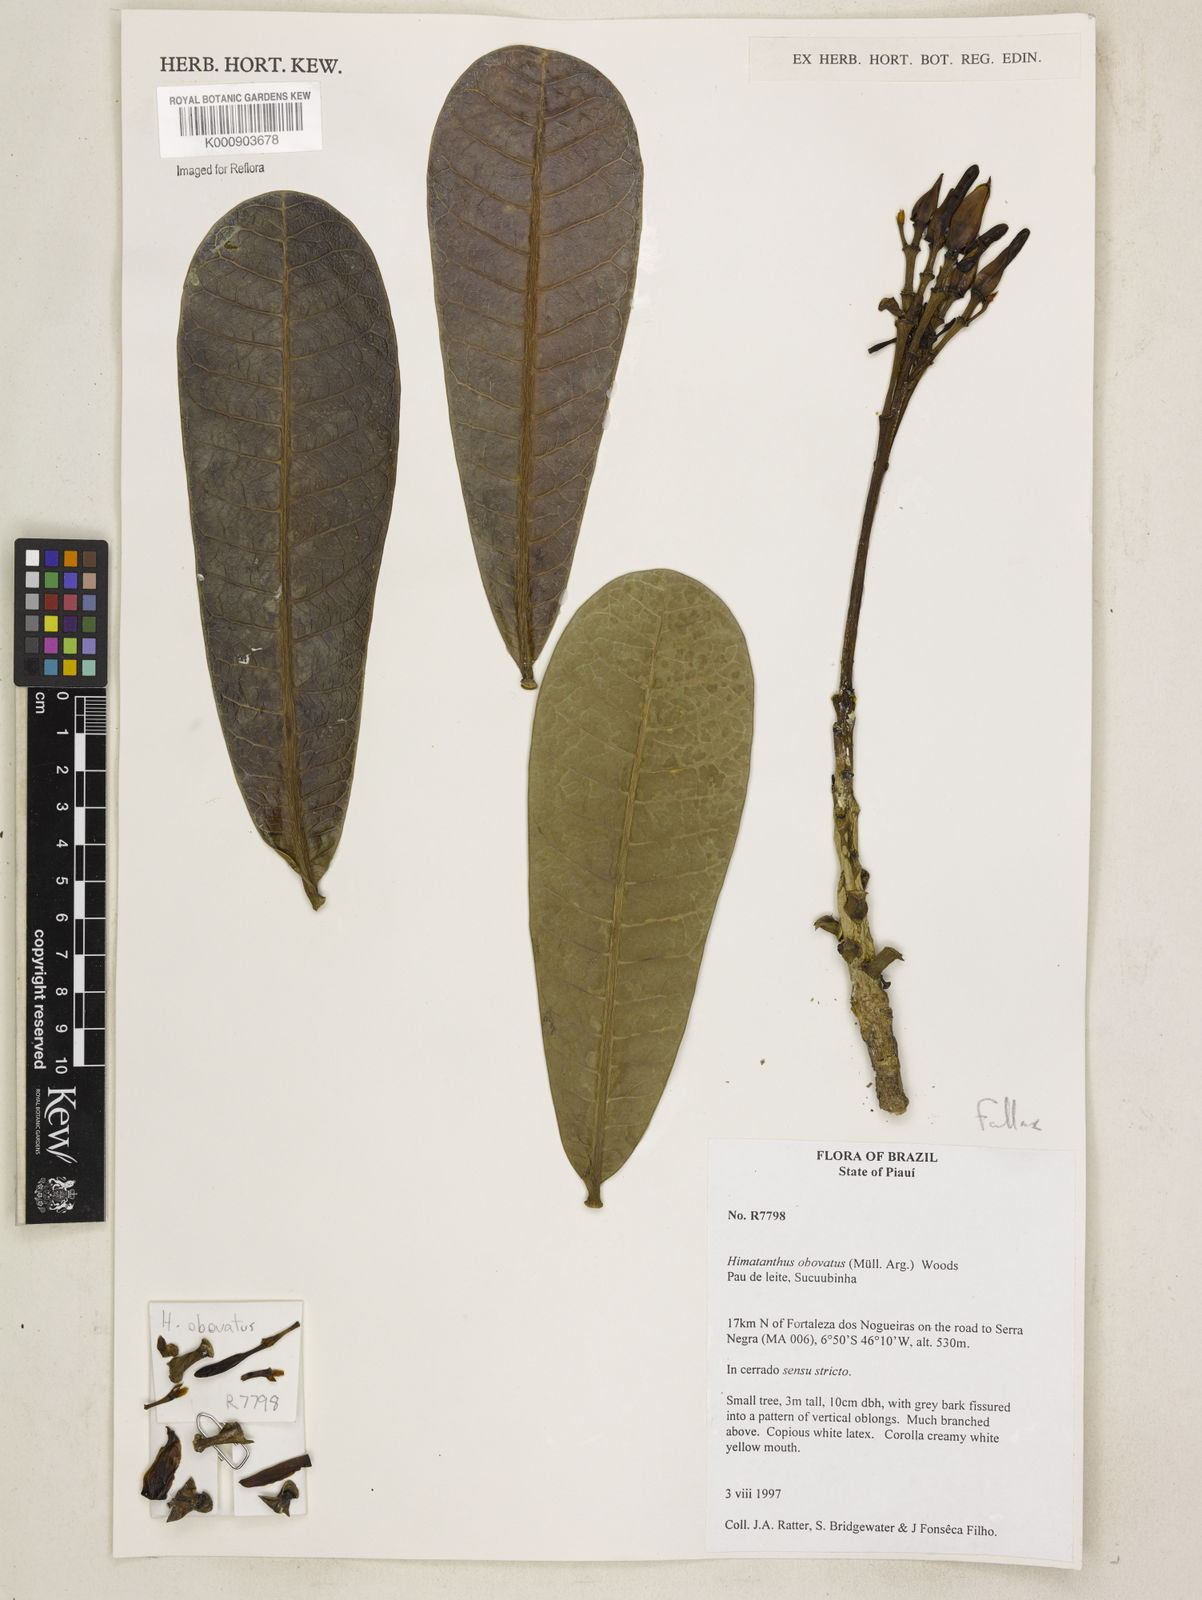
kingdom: Plantae
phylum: Tracheophyta
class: Magnoliopsida
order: Gentianales
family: Apocynaceae
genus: Himatanthus
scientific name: Himatanthus
